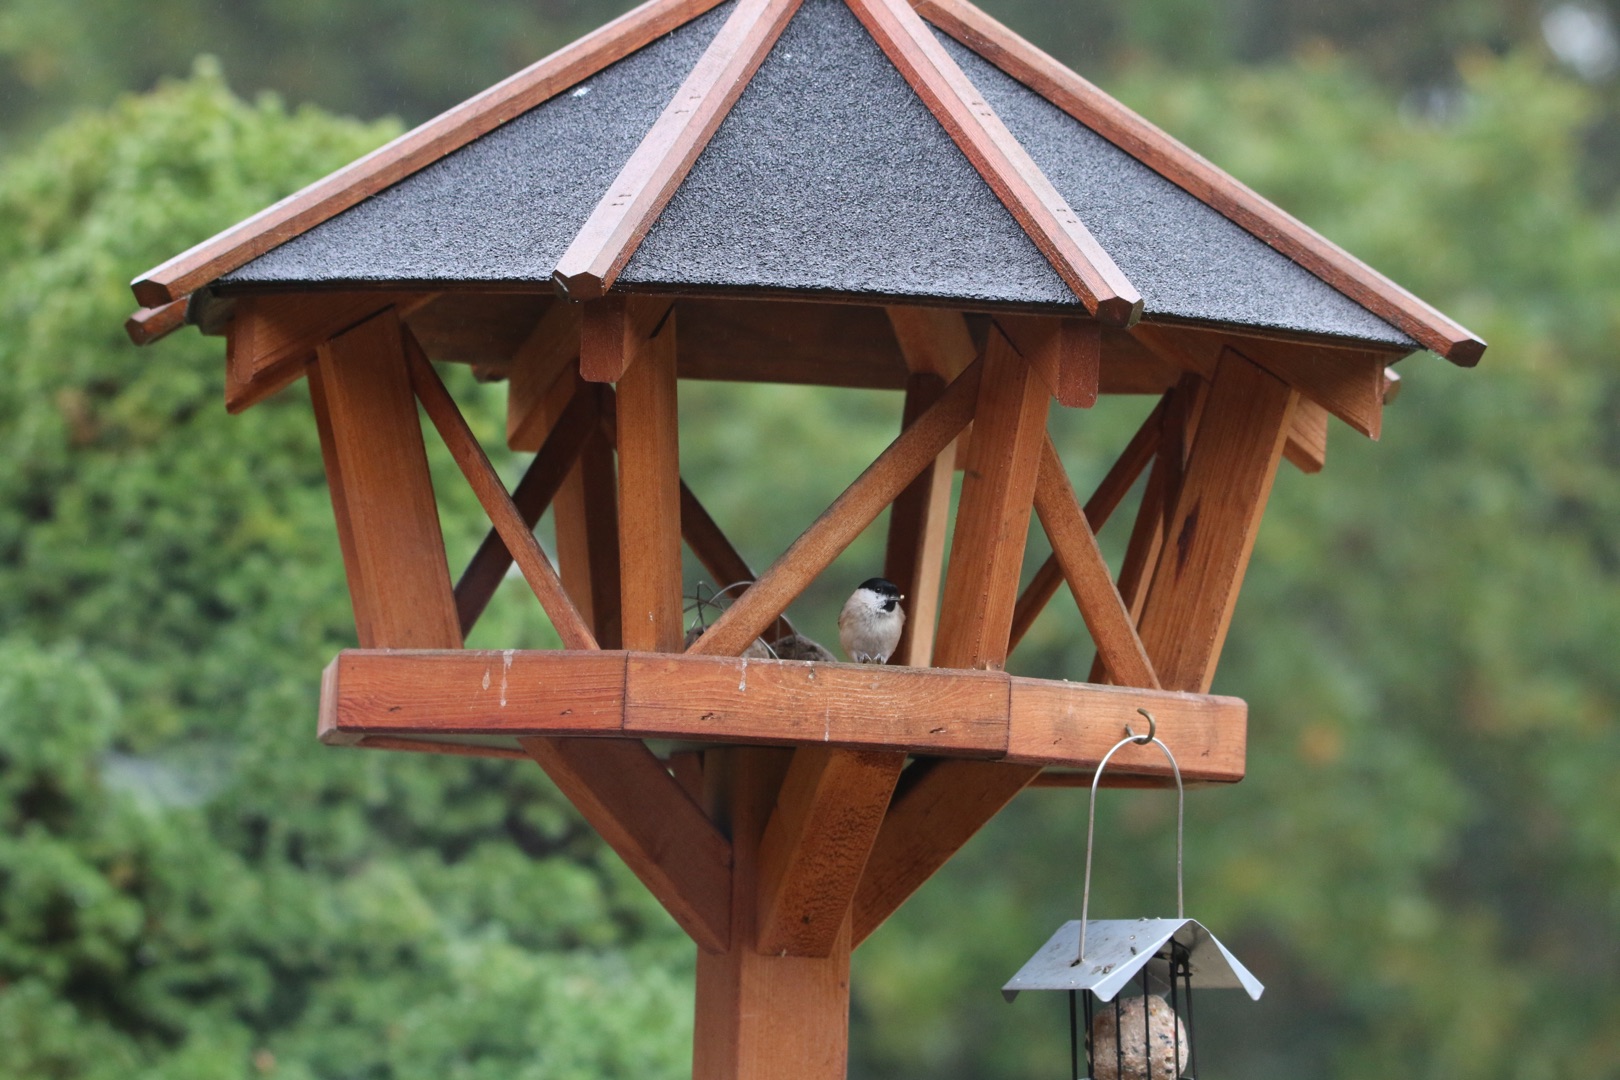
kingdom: Animalia
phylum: Chordata
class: Aves
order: Passeriformes
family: Paridae
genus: Poecile
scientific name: Poecile palustris
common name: Sumpmejse
